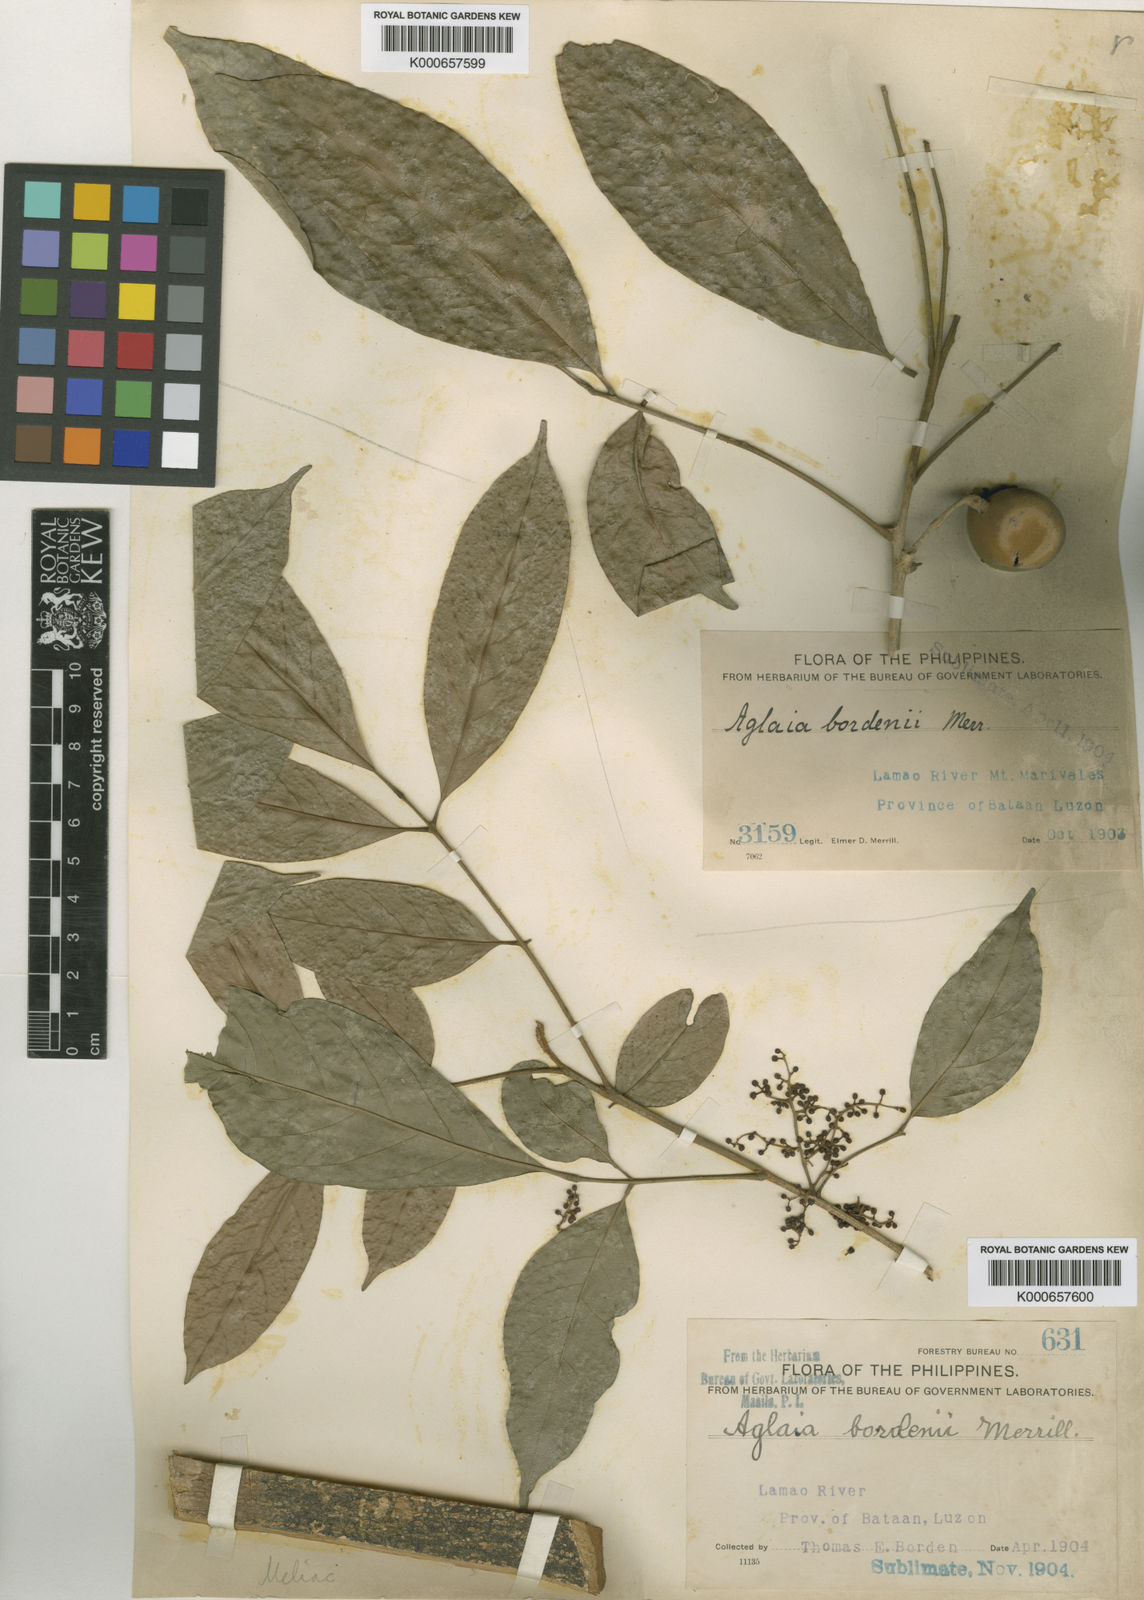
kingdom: Plantae
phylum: Tracheophyta
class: Magnoliopsida
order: Sapindales
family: Meliaceae
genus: Aglaia
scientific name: Aglaia oligophylla
